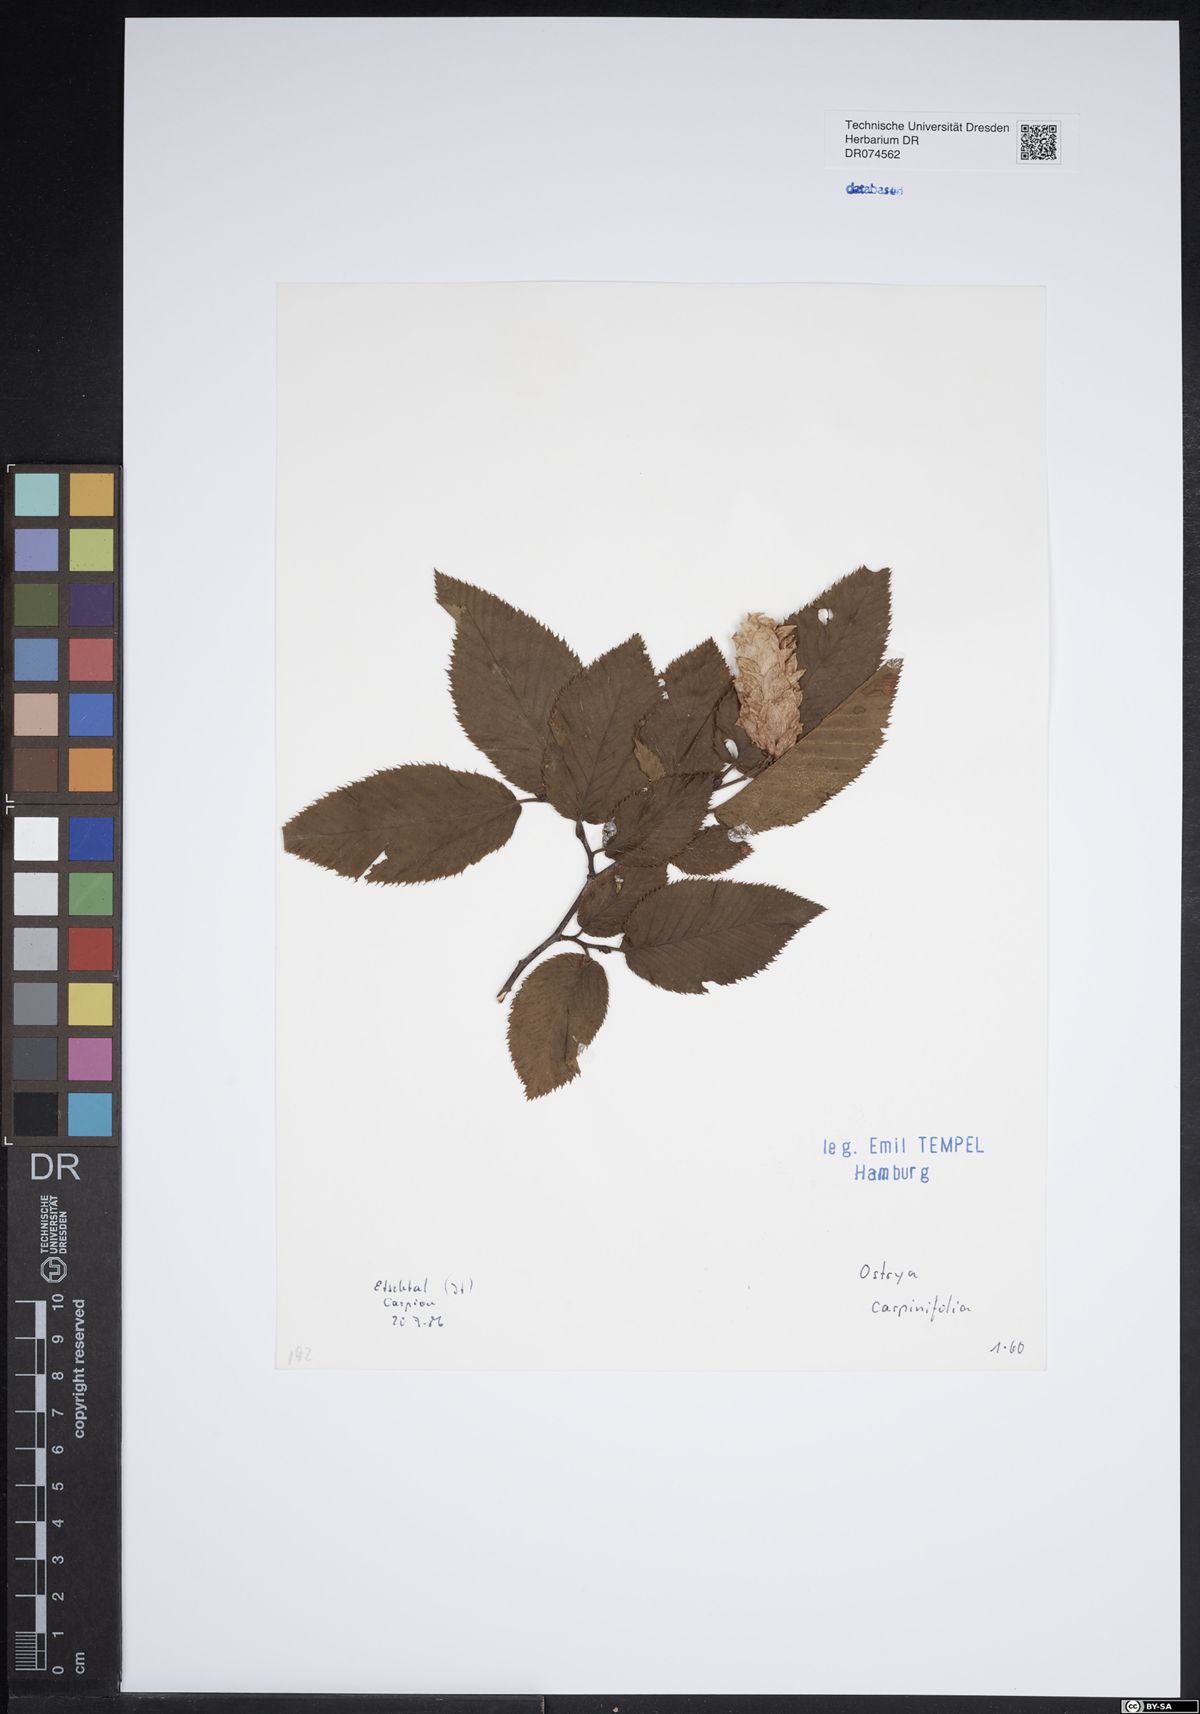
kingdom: Plantae
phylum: Tracheophyta
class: Magnoliopsida
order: Fagales
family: Betulaceae
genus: Ostrya
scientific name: Ostrya carpinifolia
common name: European hop-hornbeam
